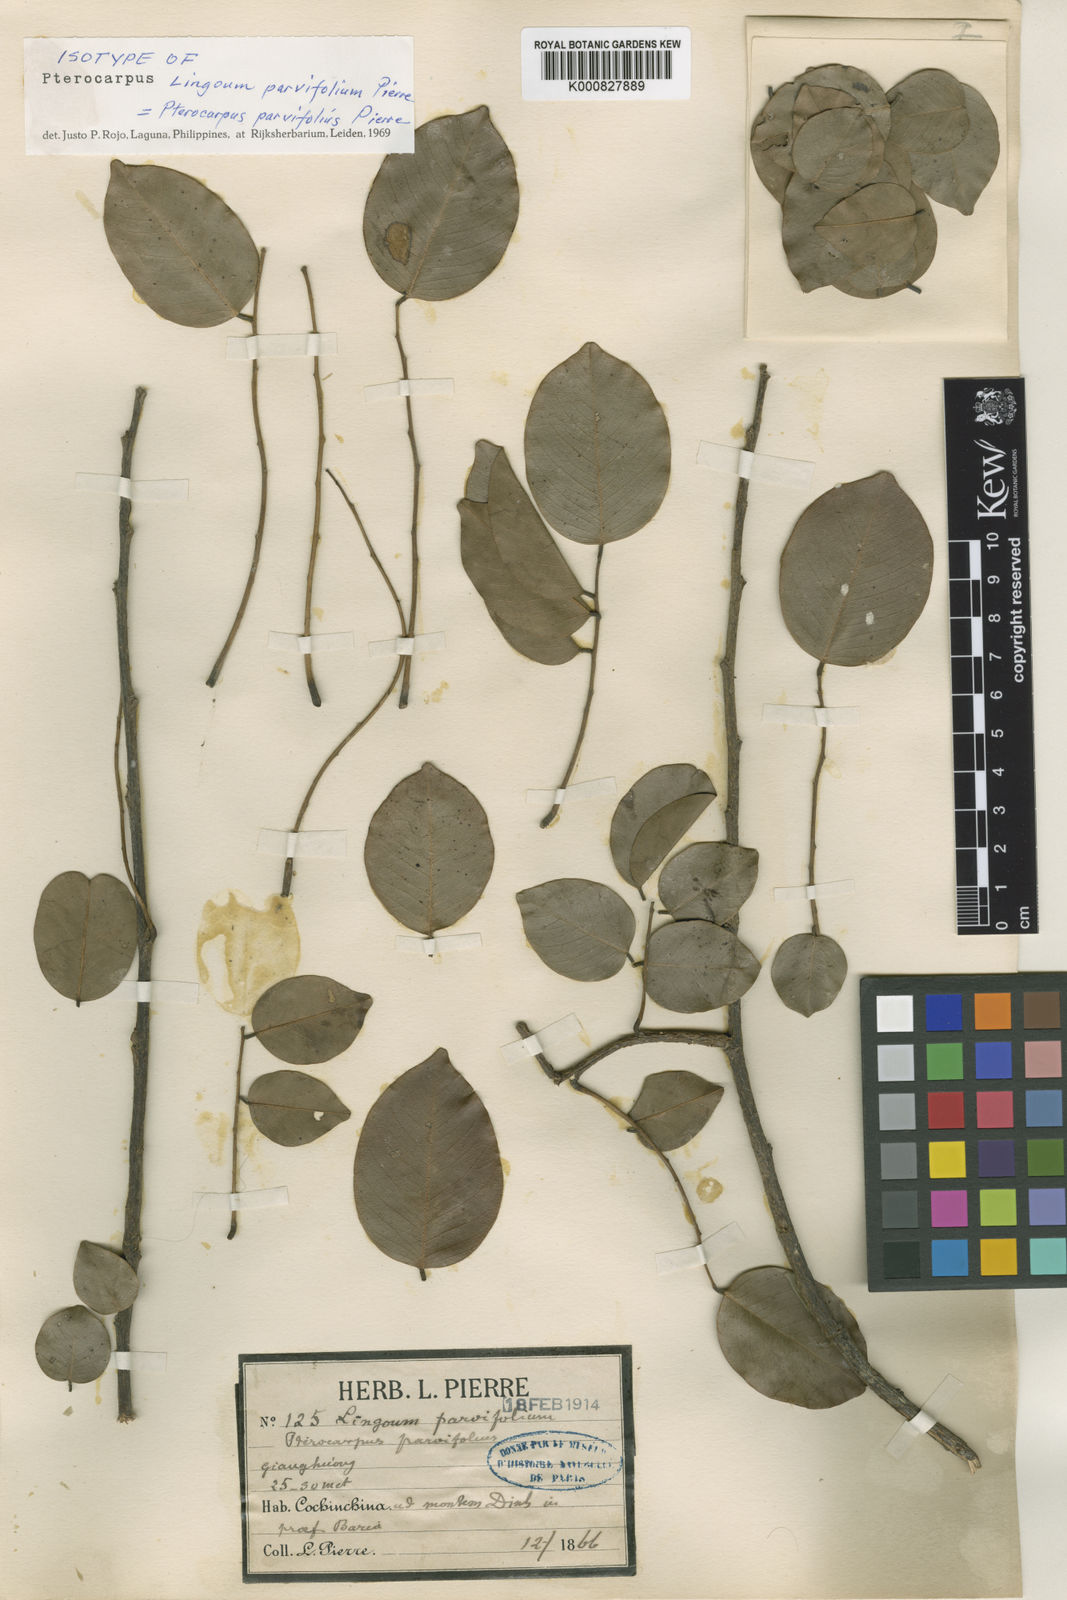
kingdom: Plantae
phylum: Tracheophyta
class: Magnoliopsida
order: Fabales
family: Fabaceae
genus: Pterocarpus
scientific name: Pterocarpus
